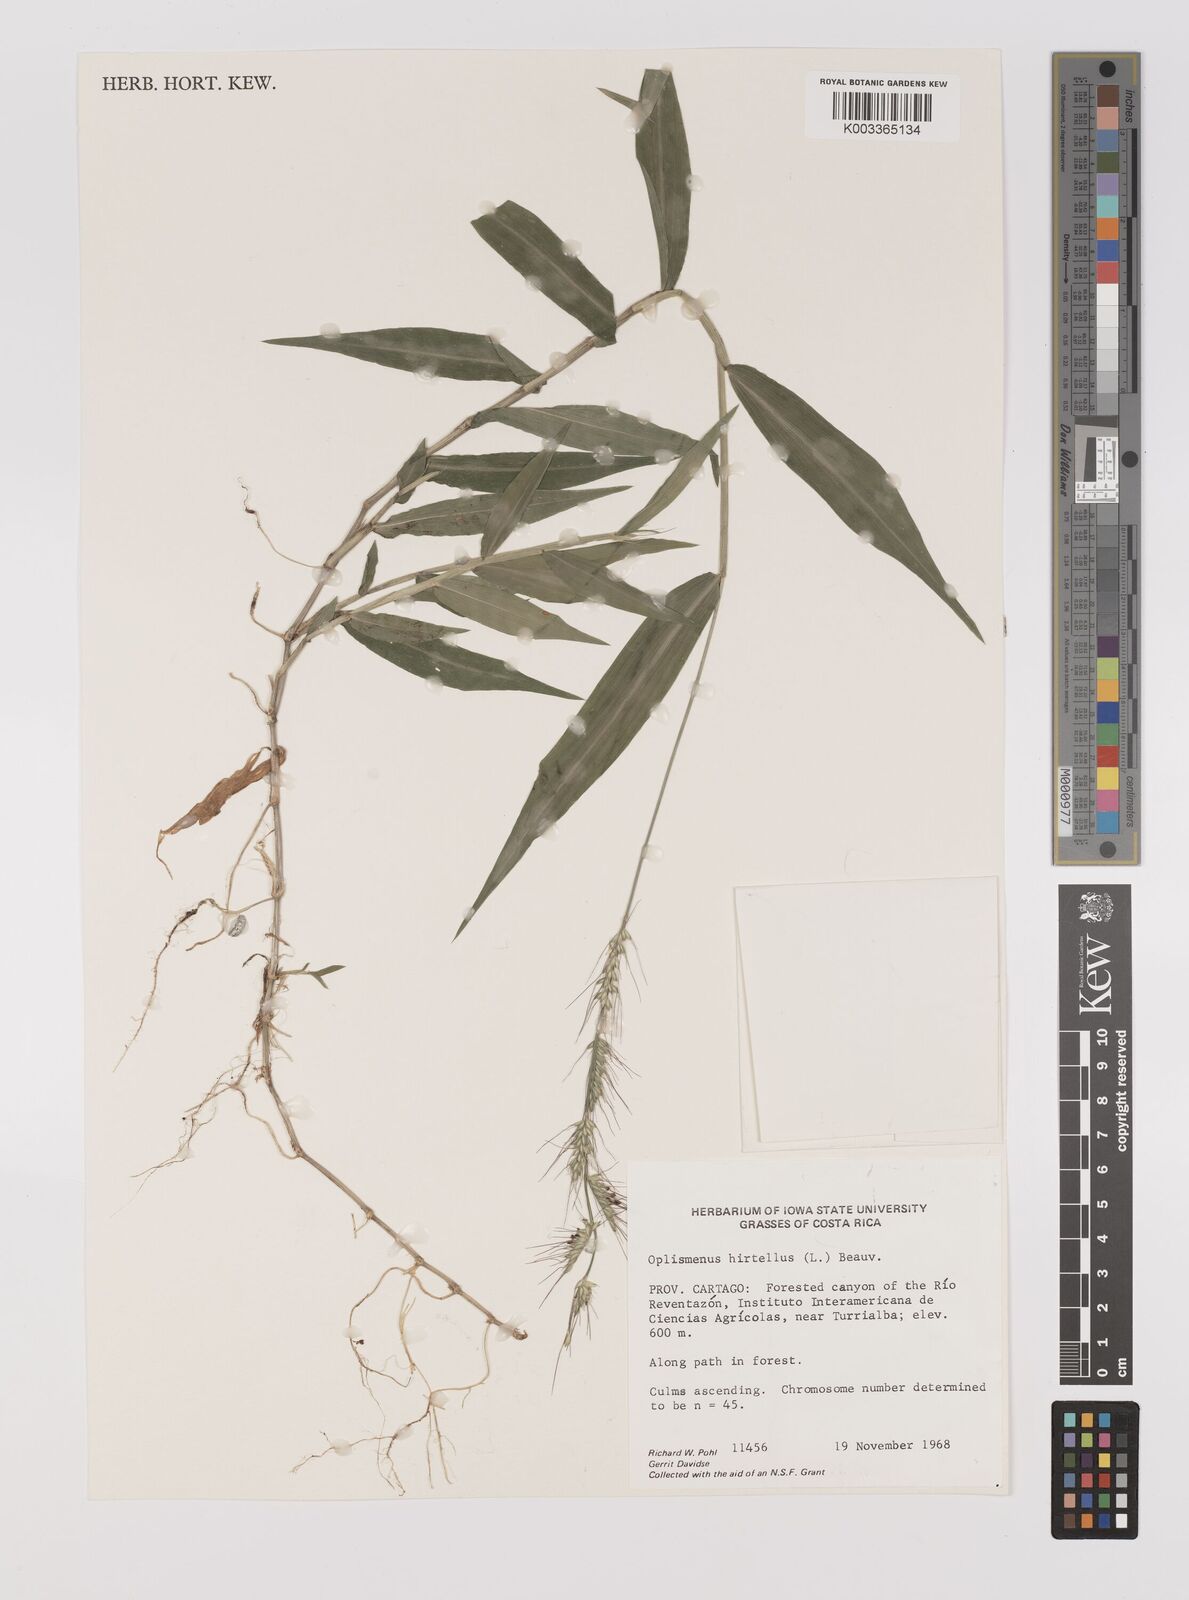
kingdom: Plantae
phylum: Tracheophyta
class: Liliopsida
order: Poales
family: Poaceae
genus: Oplismenus
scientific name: Oplismenus hirtellus
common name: Basketgrass
